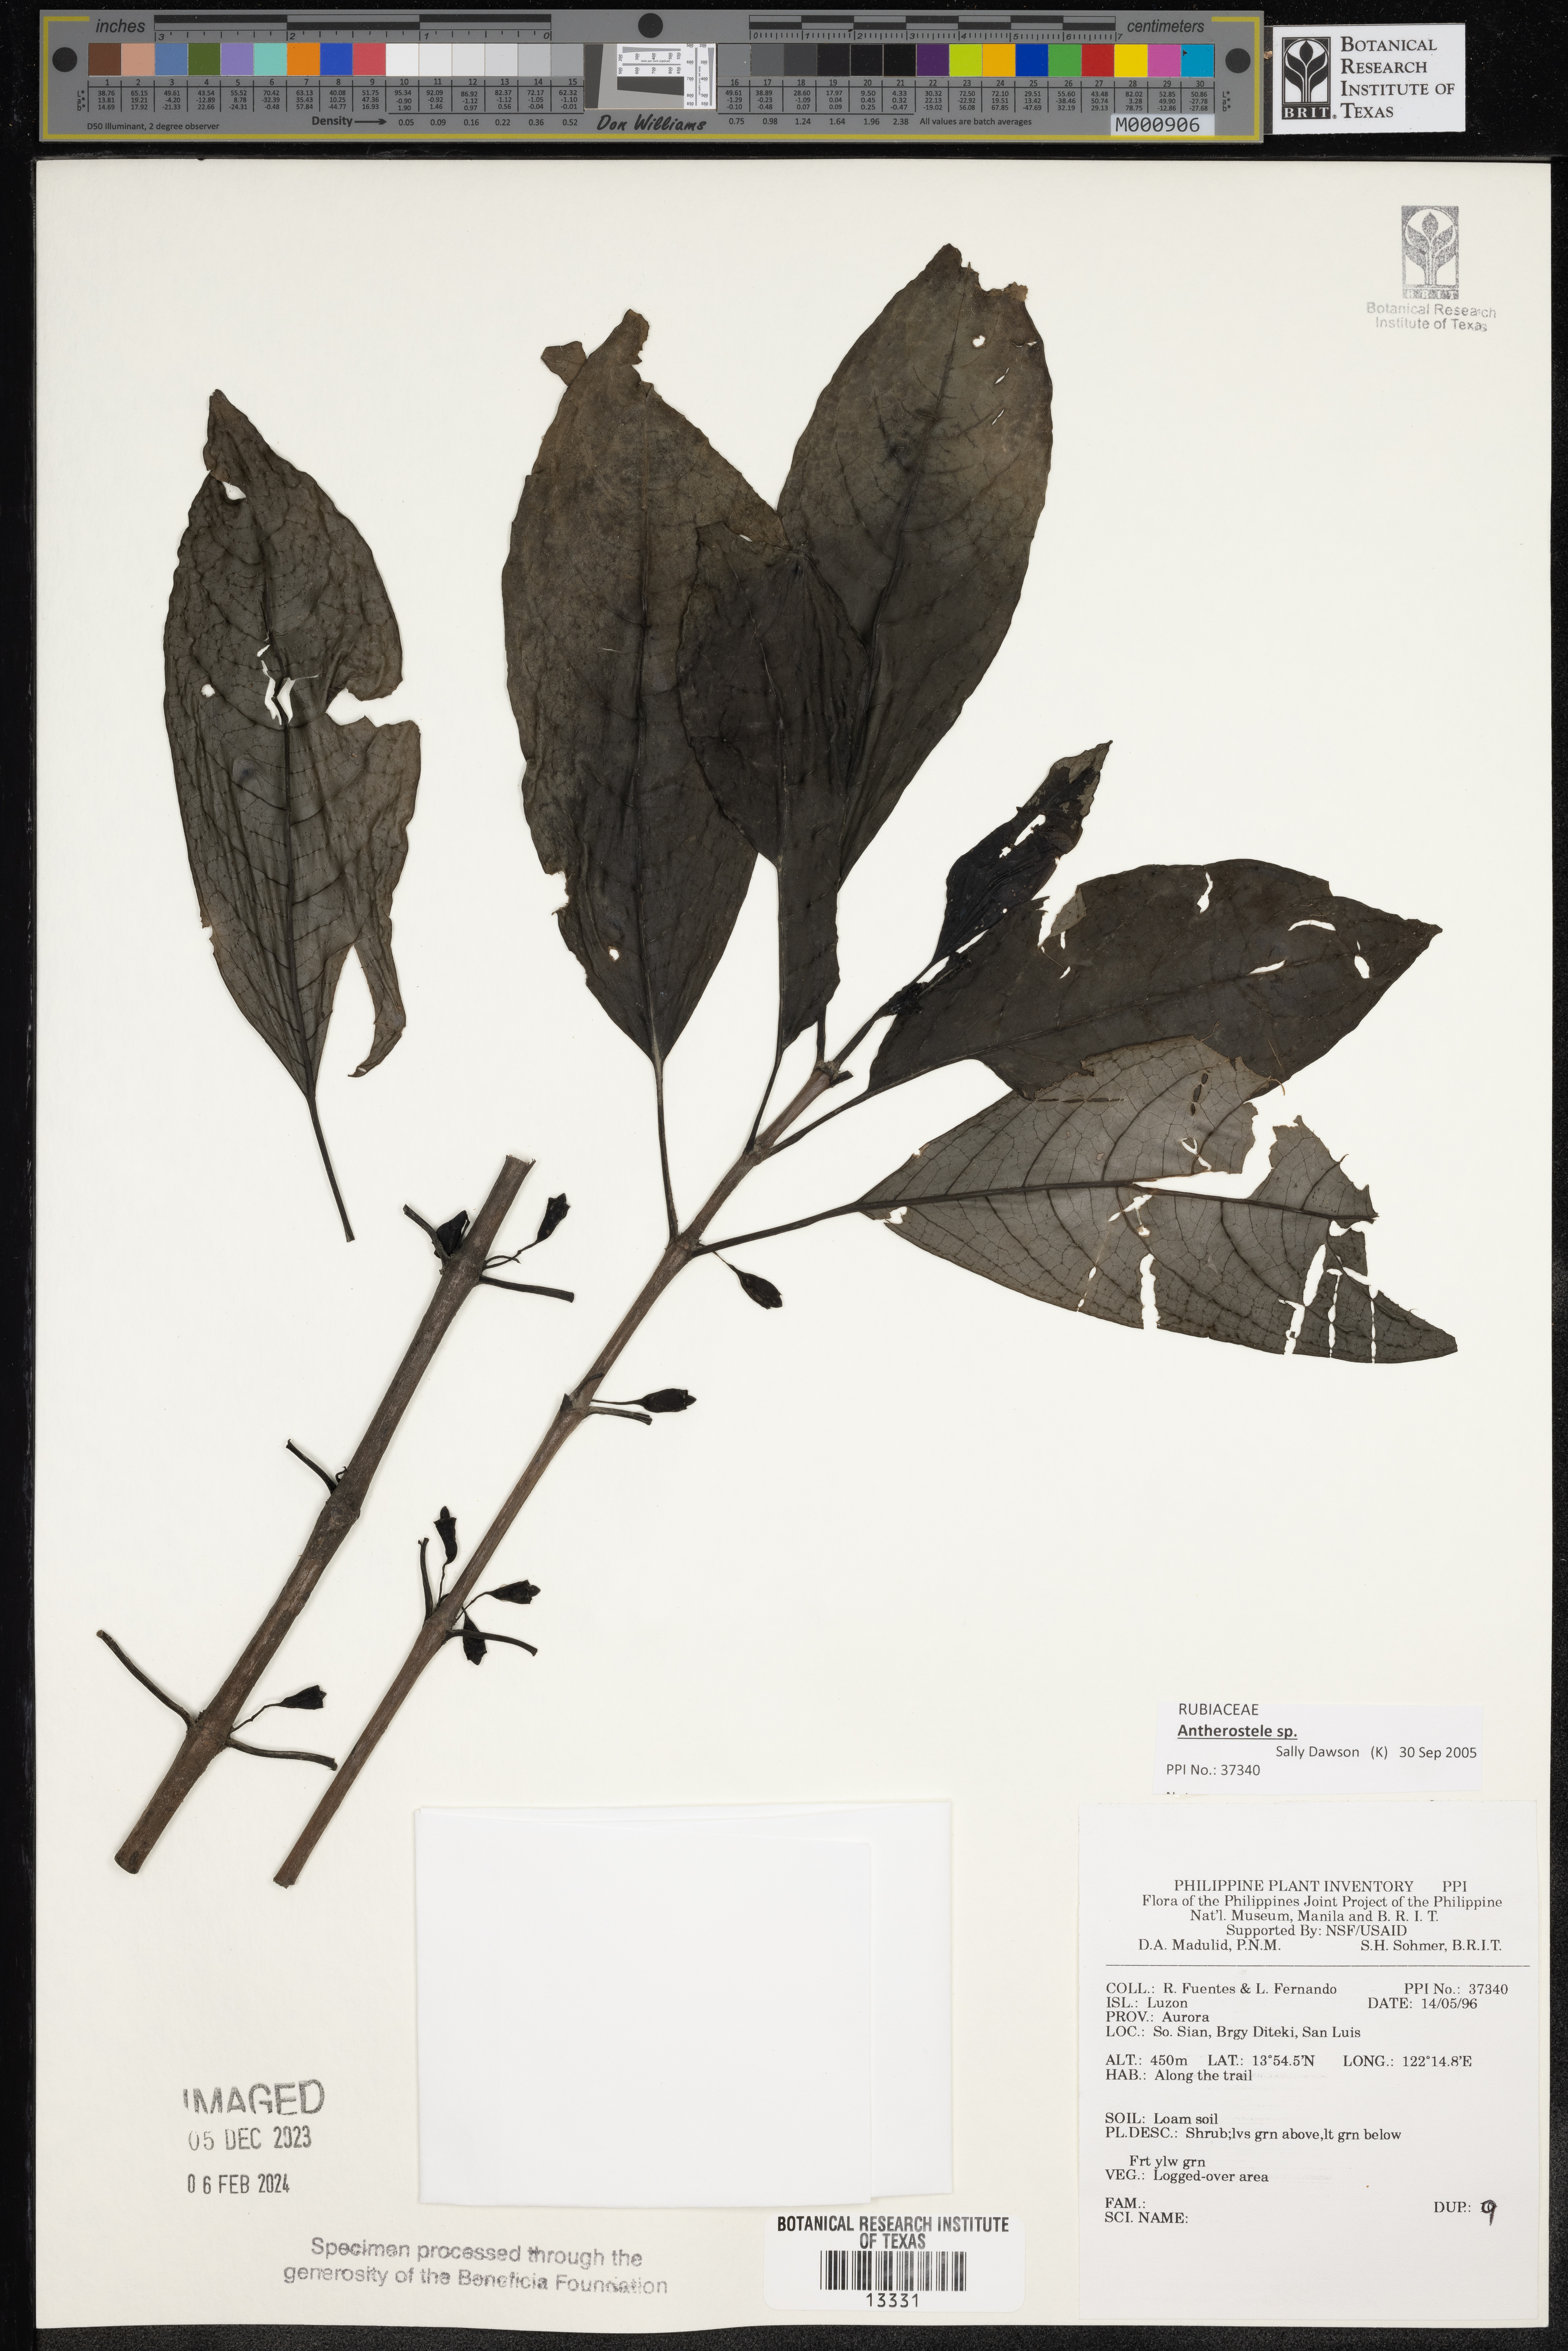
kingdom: Plantae
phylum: Tracheophyta
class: Magnoliopsida
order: Gentianales
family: Rubiaceae
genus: Antherostele
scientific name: Antherostele
